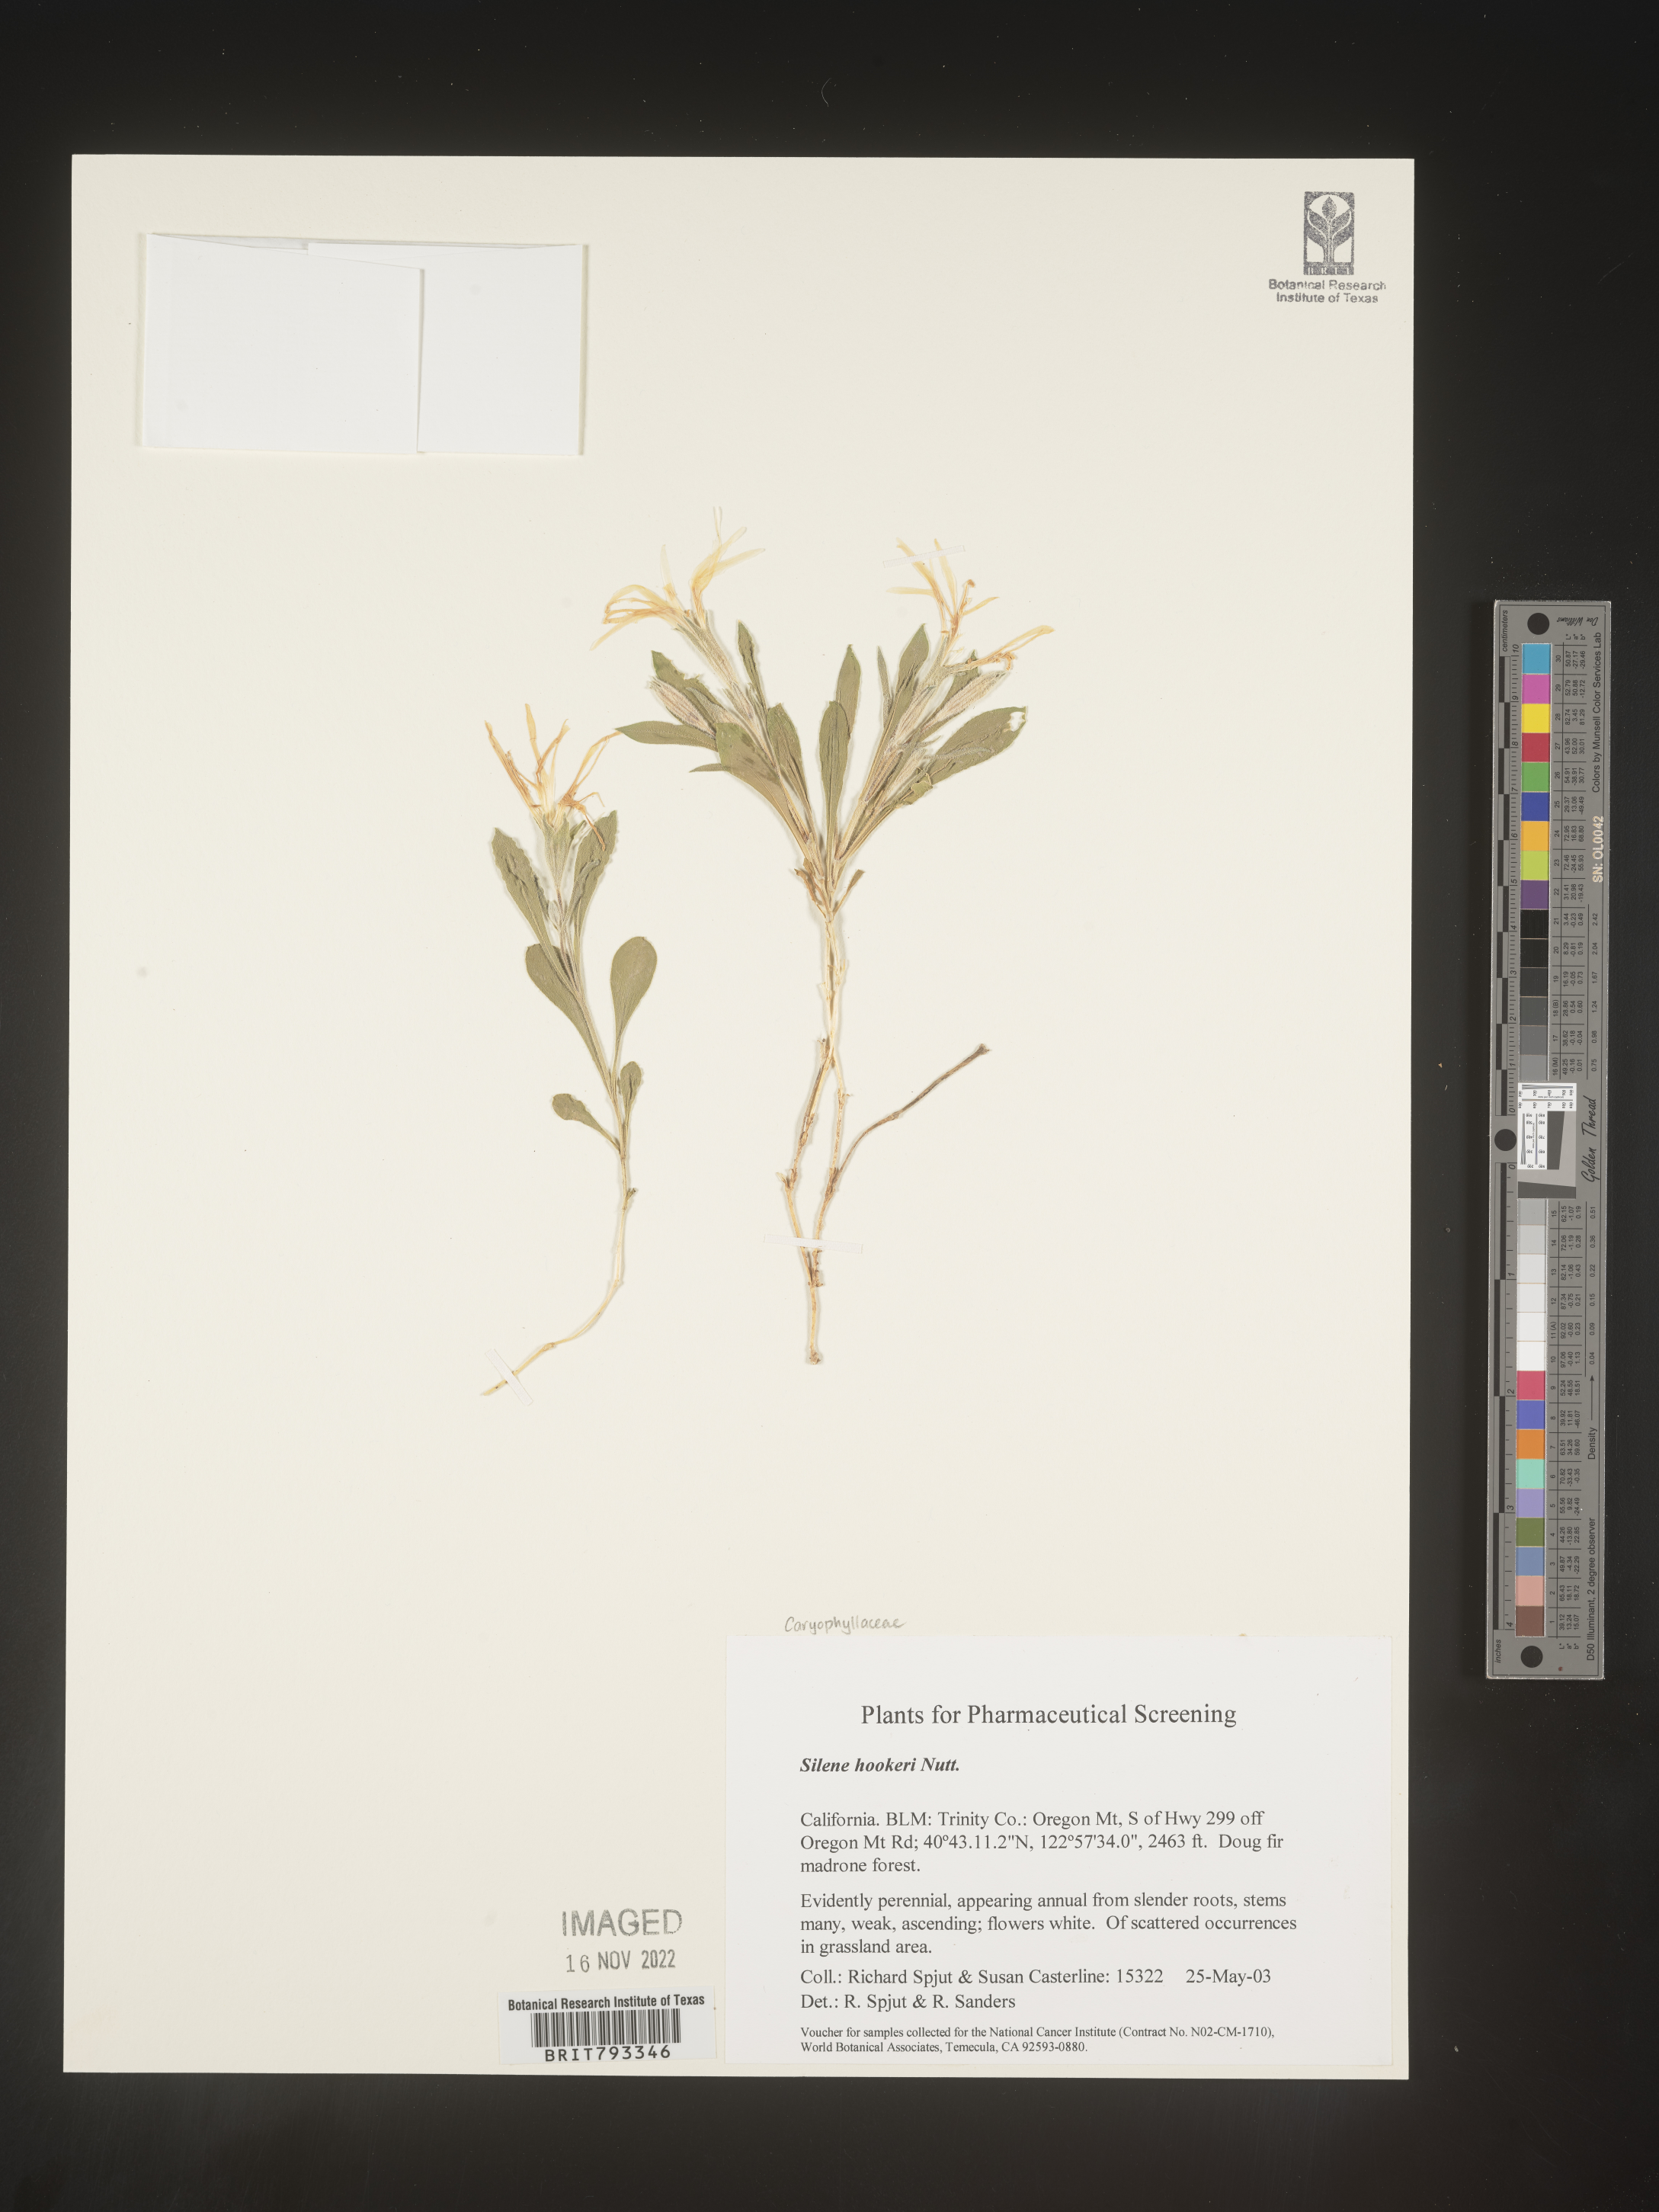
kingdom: Plantae
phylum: Tracheophyta
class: Magnoliopsida
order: Caryophyllales
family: Caryophyllaceae
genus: Silene
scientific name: Silene hookeri
